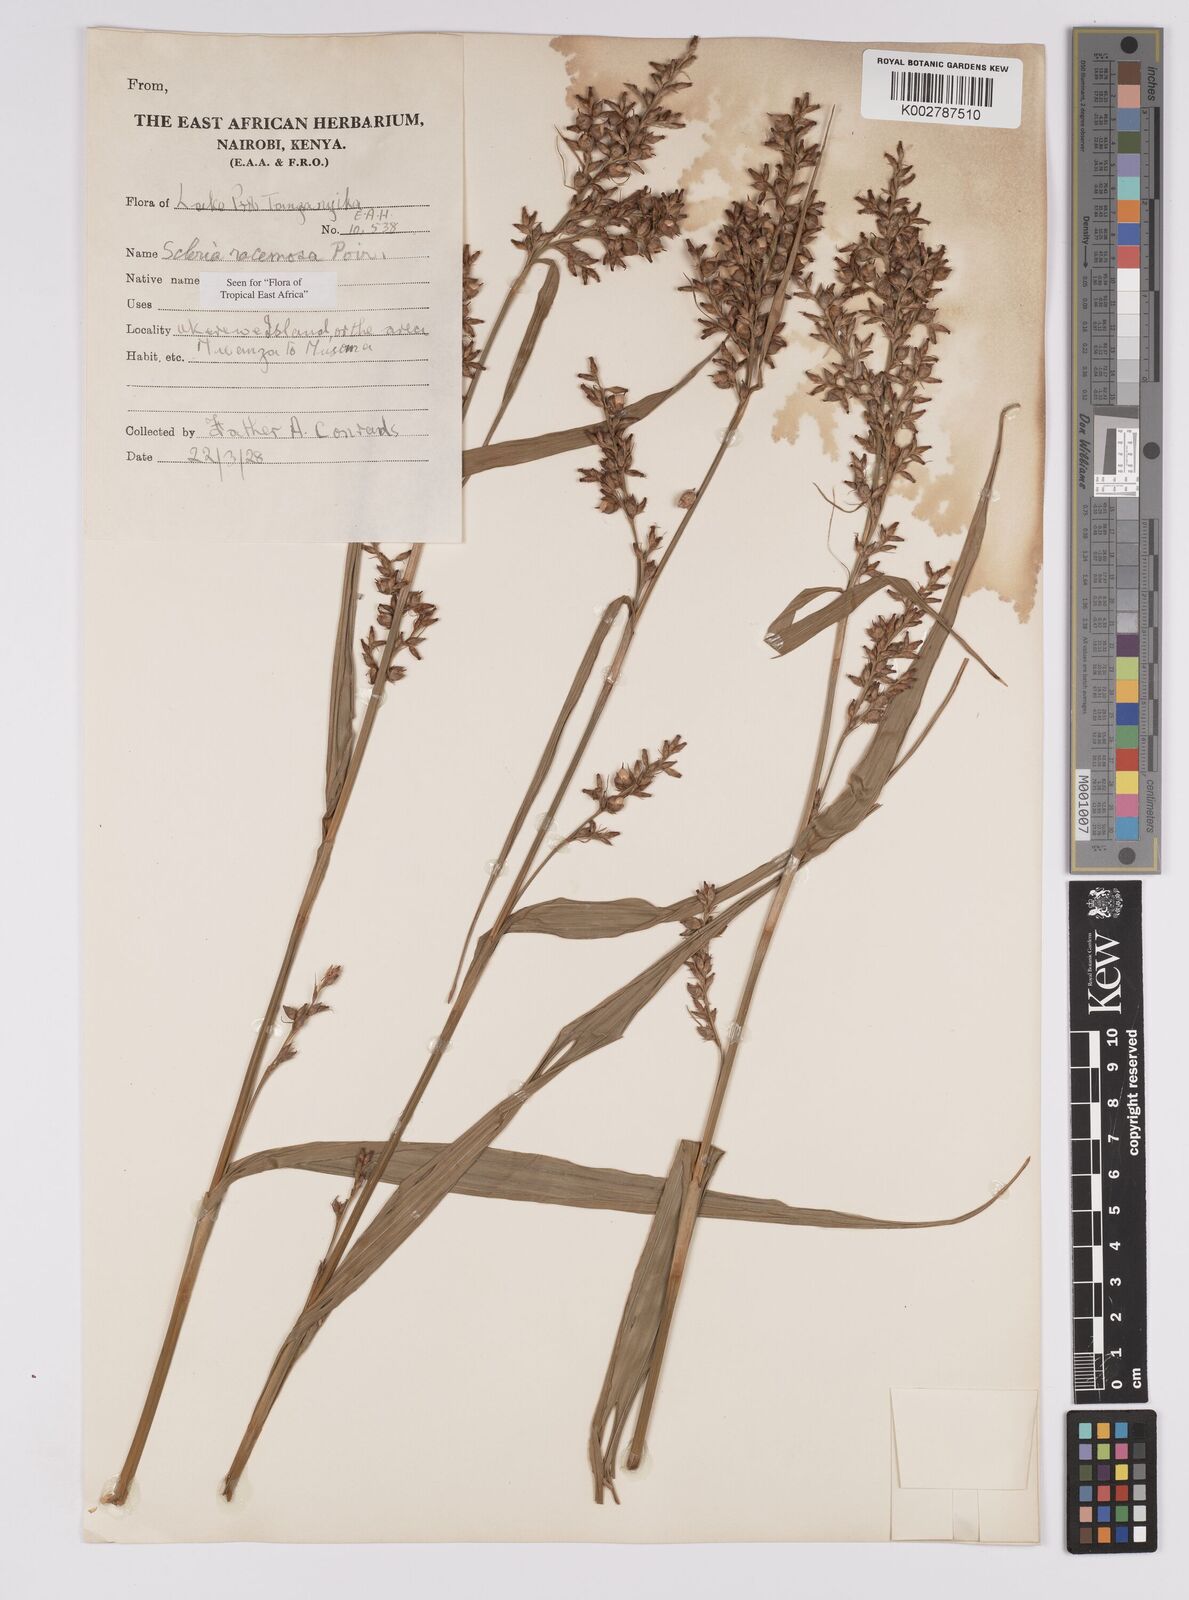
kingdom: Plantae
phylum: Tracheophyta
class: Liliopsida
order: Poales
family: Cyperaceae
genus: Scleria
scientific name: Scleria racemosa
